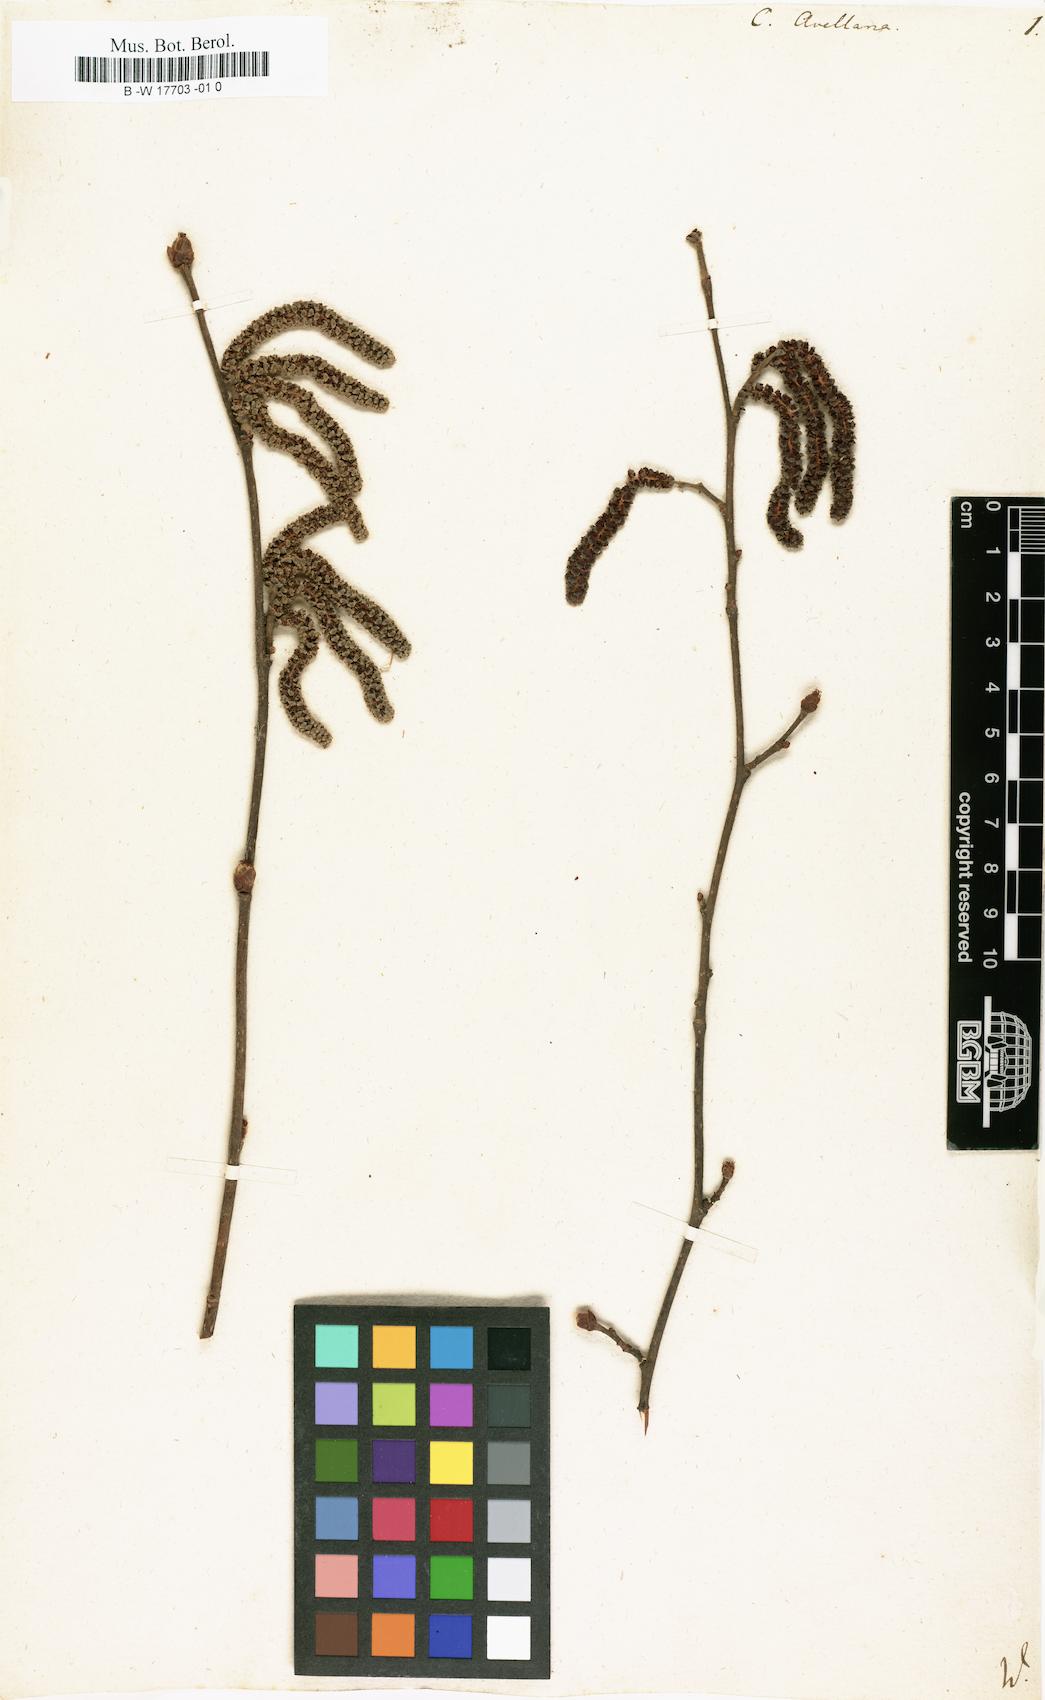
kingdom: Plantae
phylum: Tracheophyta
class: Magnoliopsida
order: Fagales
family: Betulaceae
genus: Corylus
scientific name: Corylus avellana
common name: European hazel
